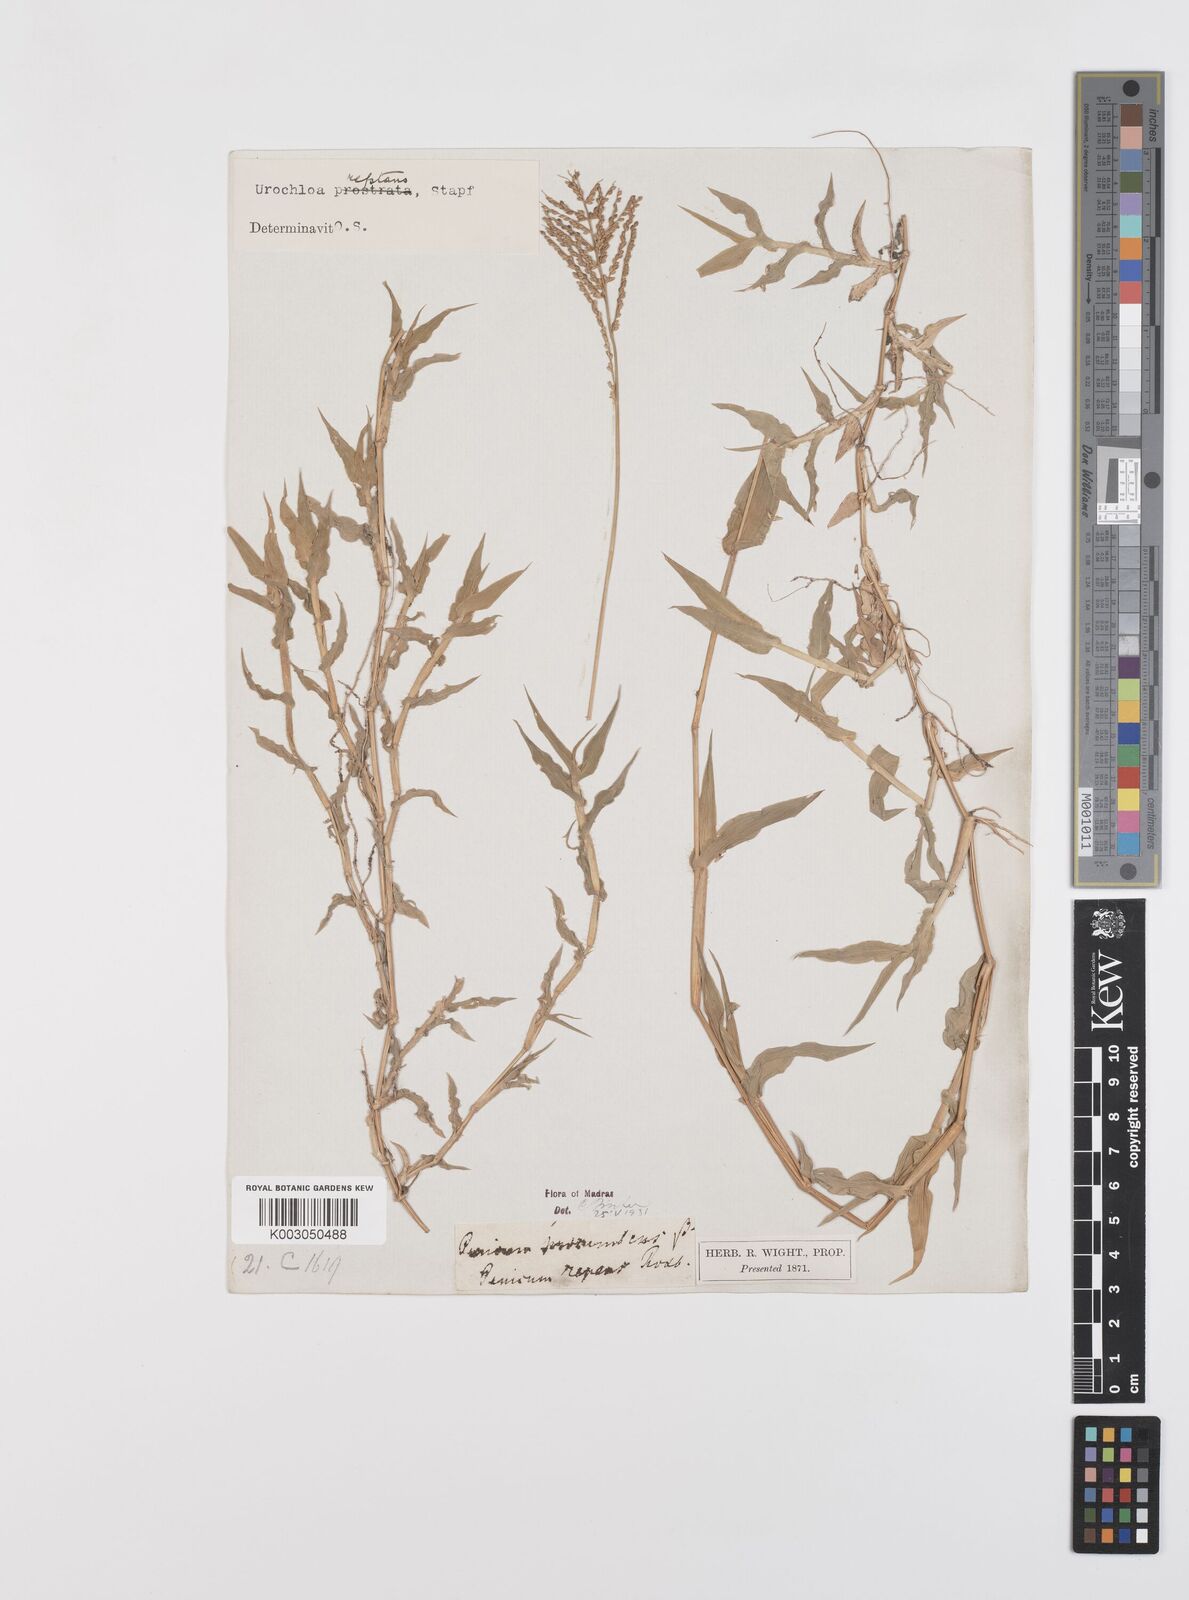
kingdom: Plantae
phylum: Tracheophyta
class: Liliopsida
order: Poales
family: Poaceae
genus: Urochloa
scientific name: Urochloa reptans
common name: Sprawling signalgrass
